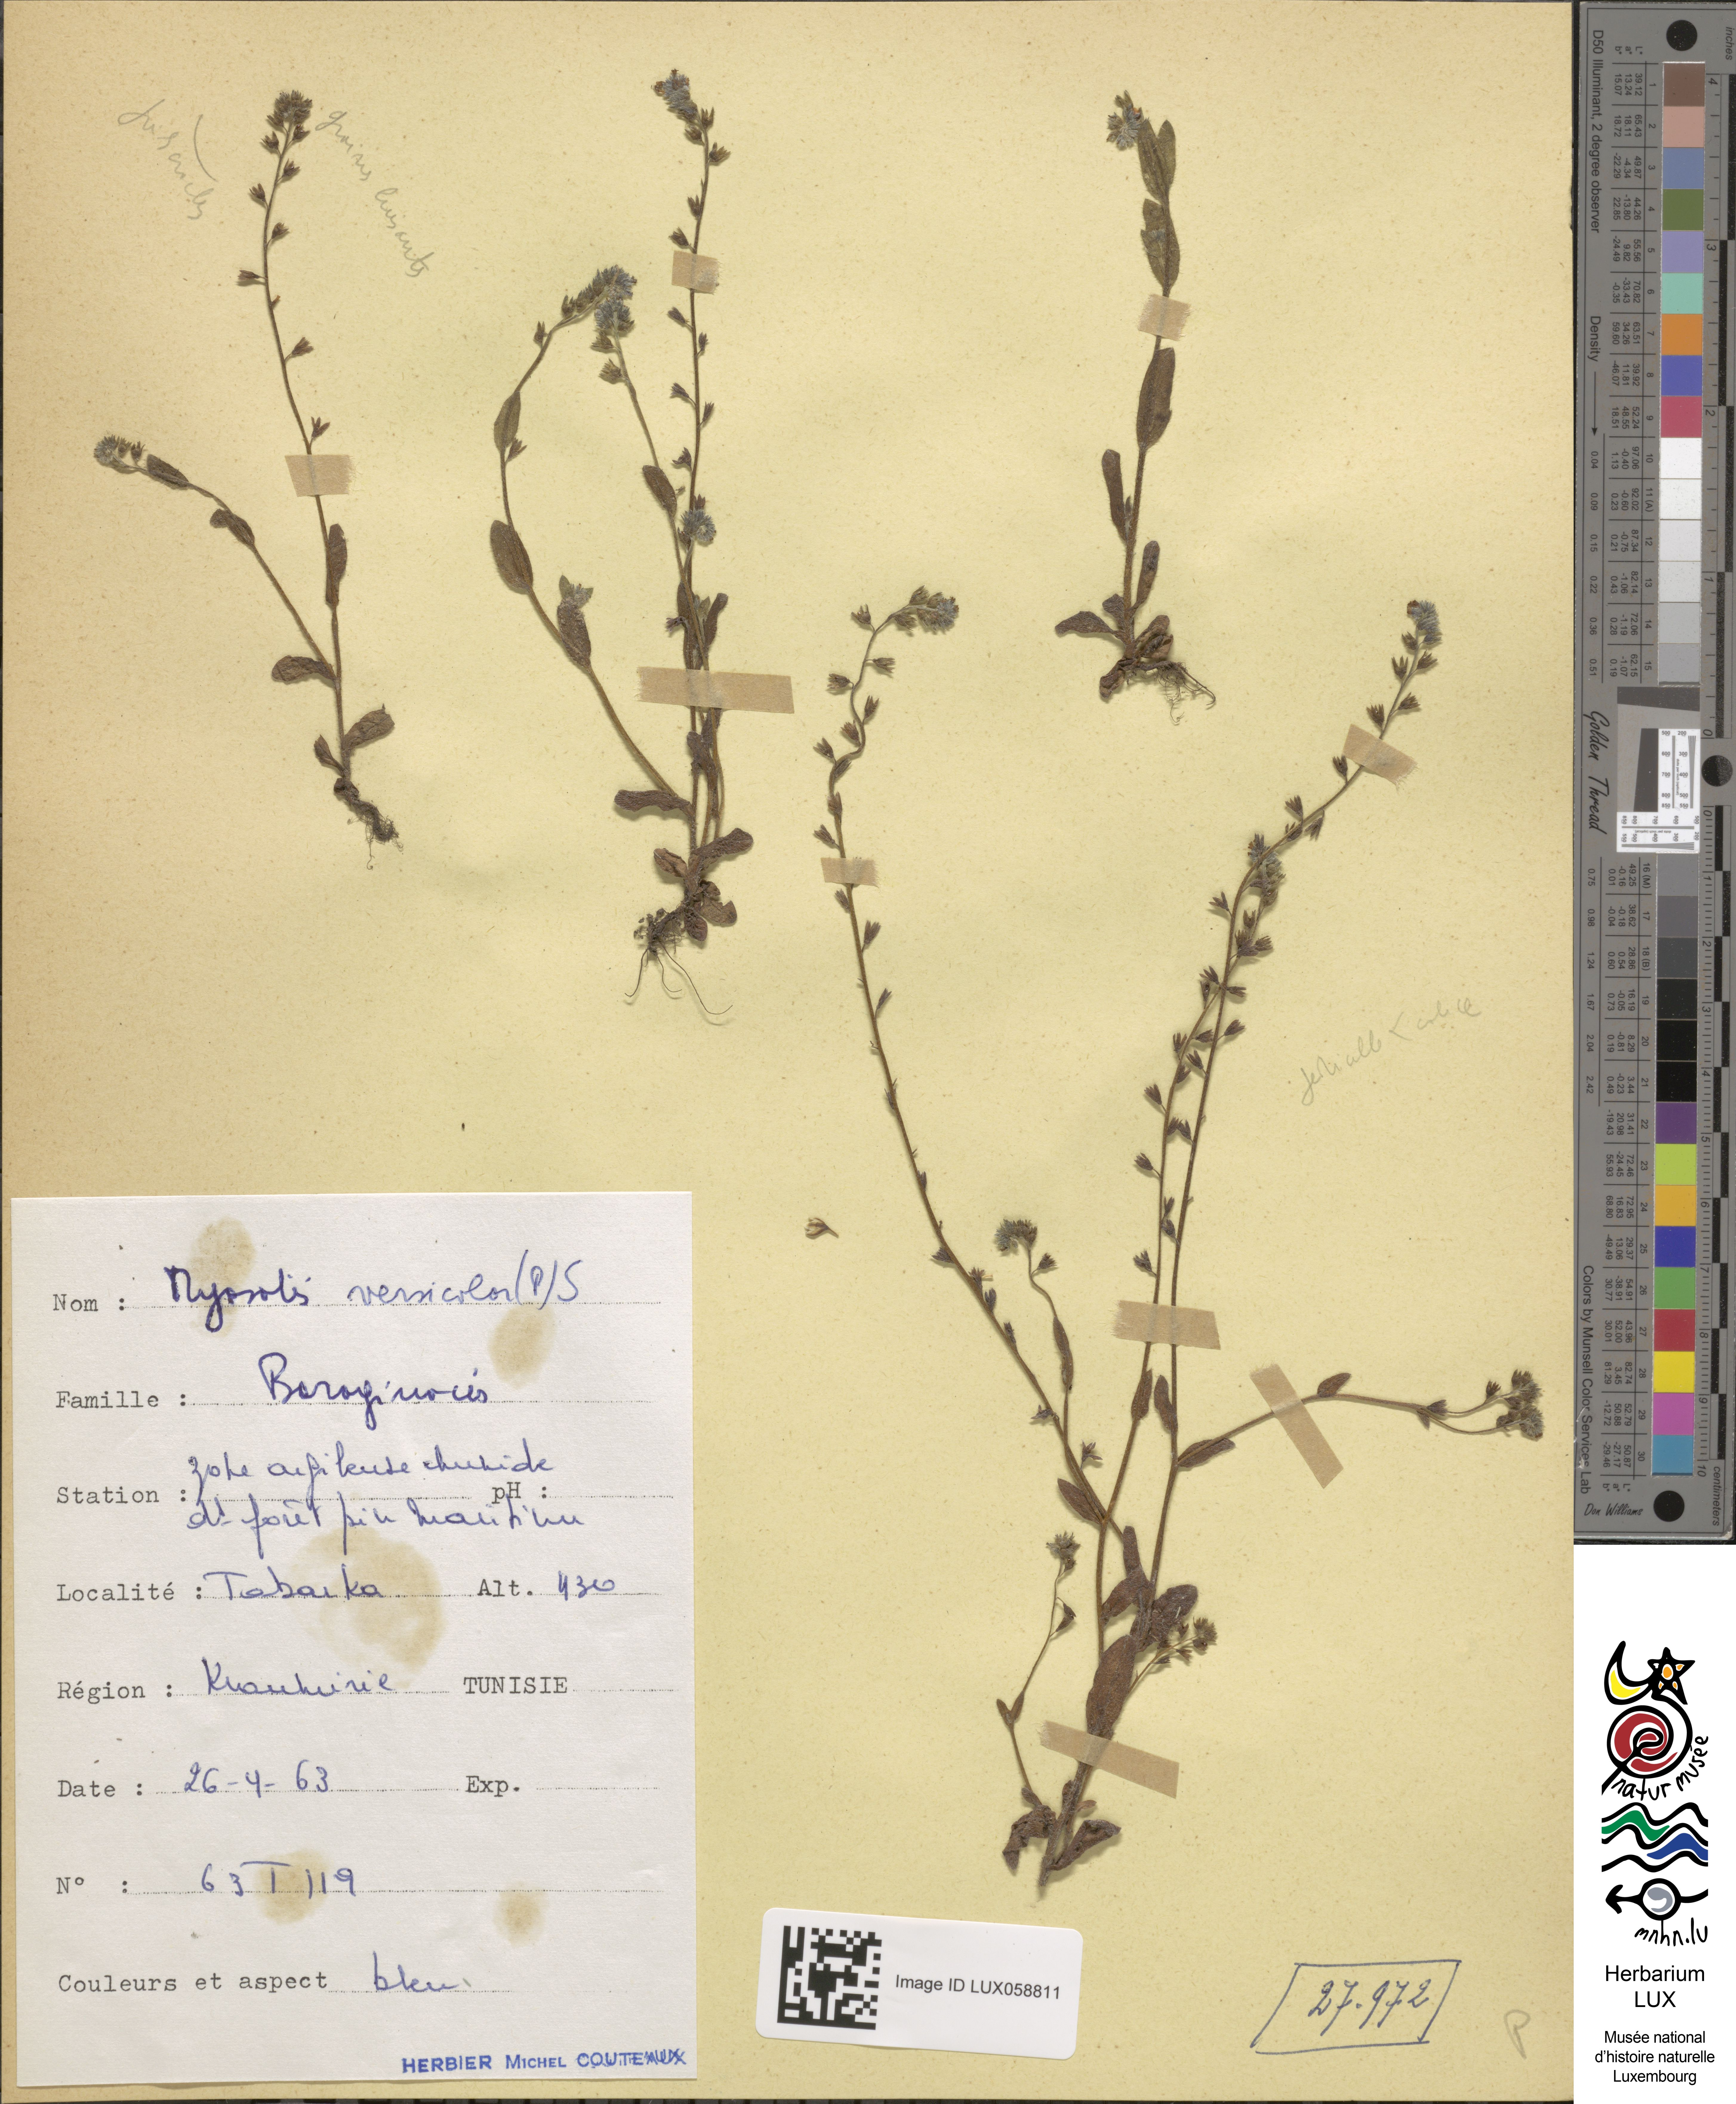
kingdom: Plantae
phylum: Tracheophyta
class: Magnoliopsida
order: Boraginales
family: Boraginaceae
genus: Myosotis
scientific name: Myosotis discolor
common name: Changing forget-me-not
